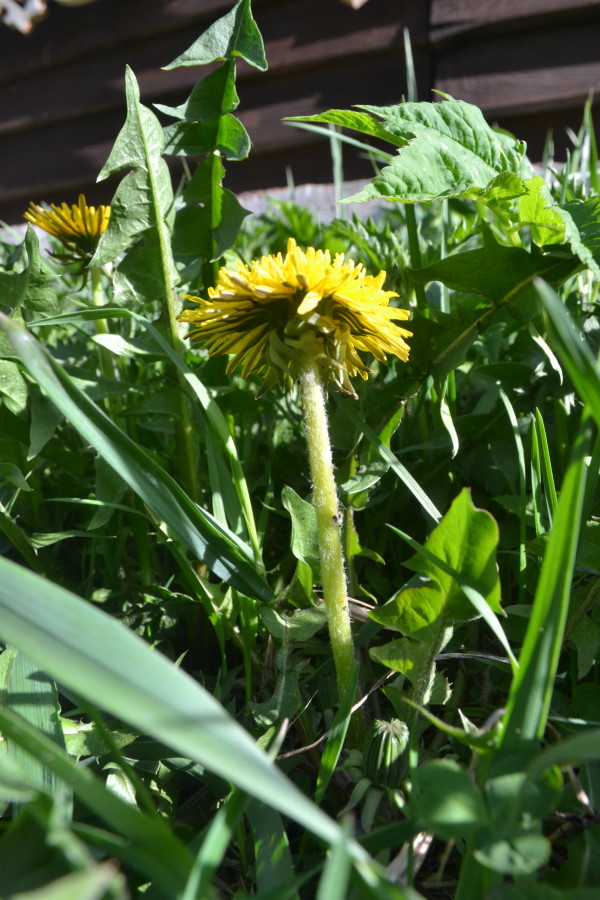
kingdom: Plantae
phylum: Tracheophyta
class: Magnoliopsida
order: Asterales
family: Asteraceae
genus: Taraxacum
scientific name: Taraxacum erythrospermum
